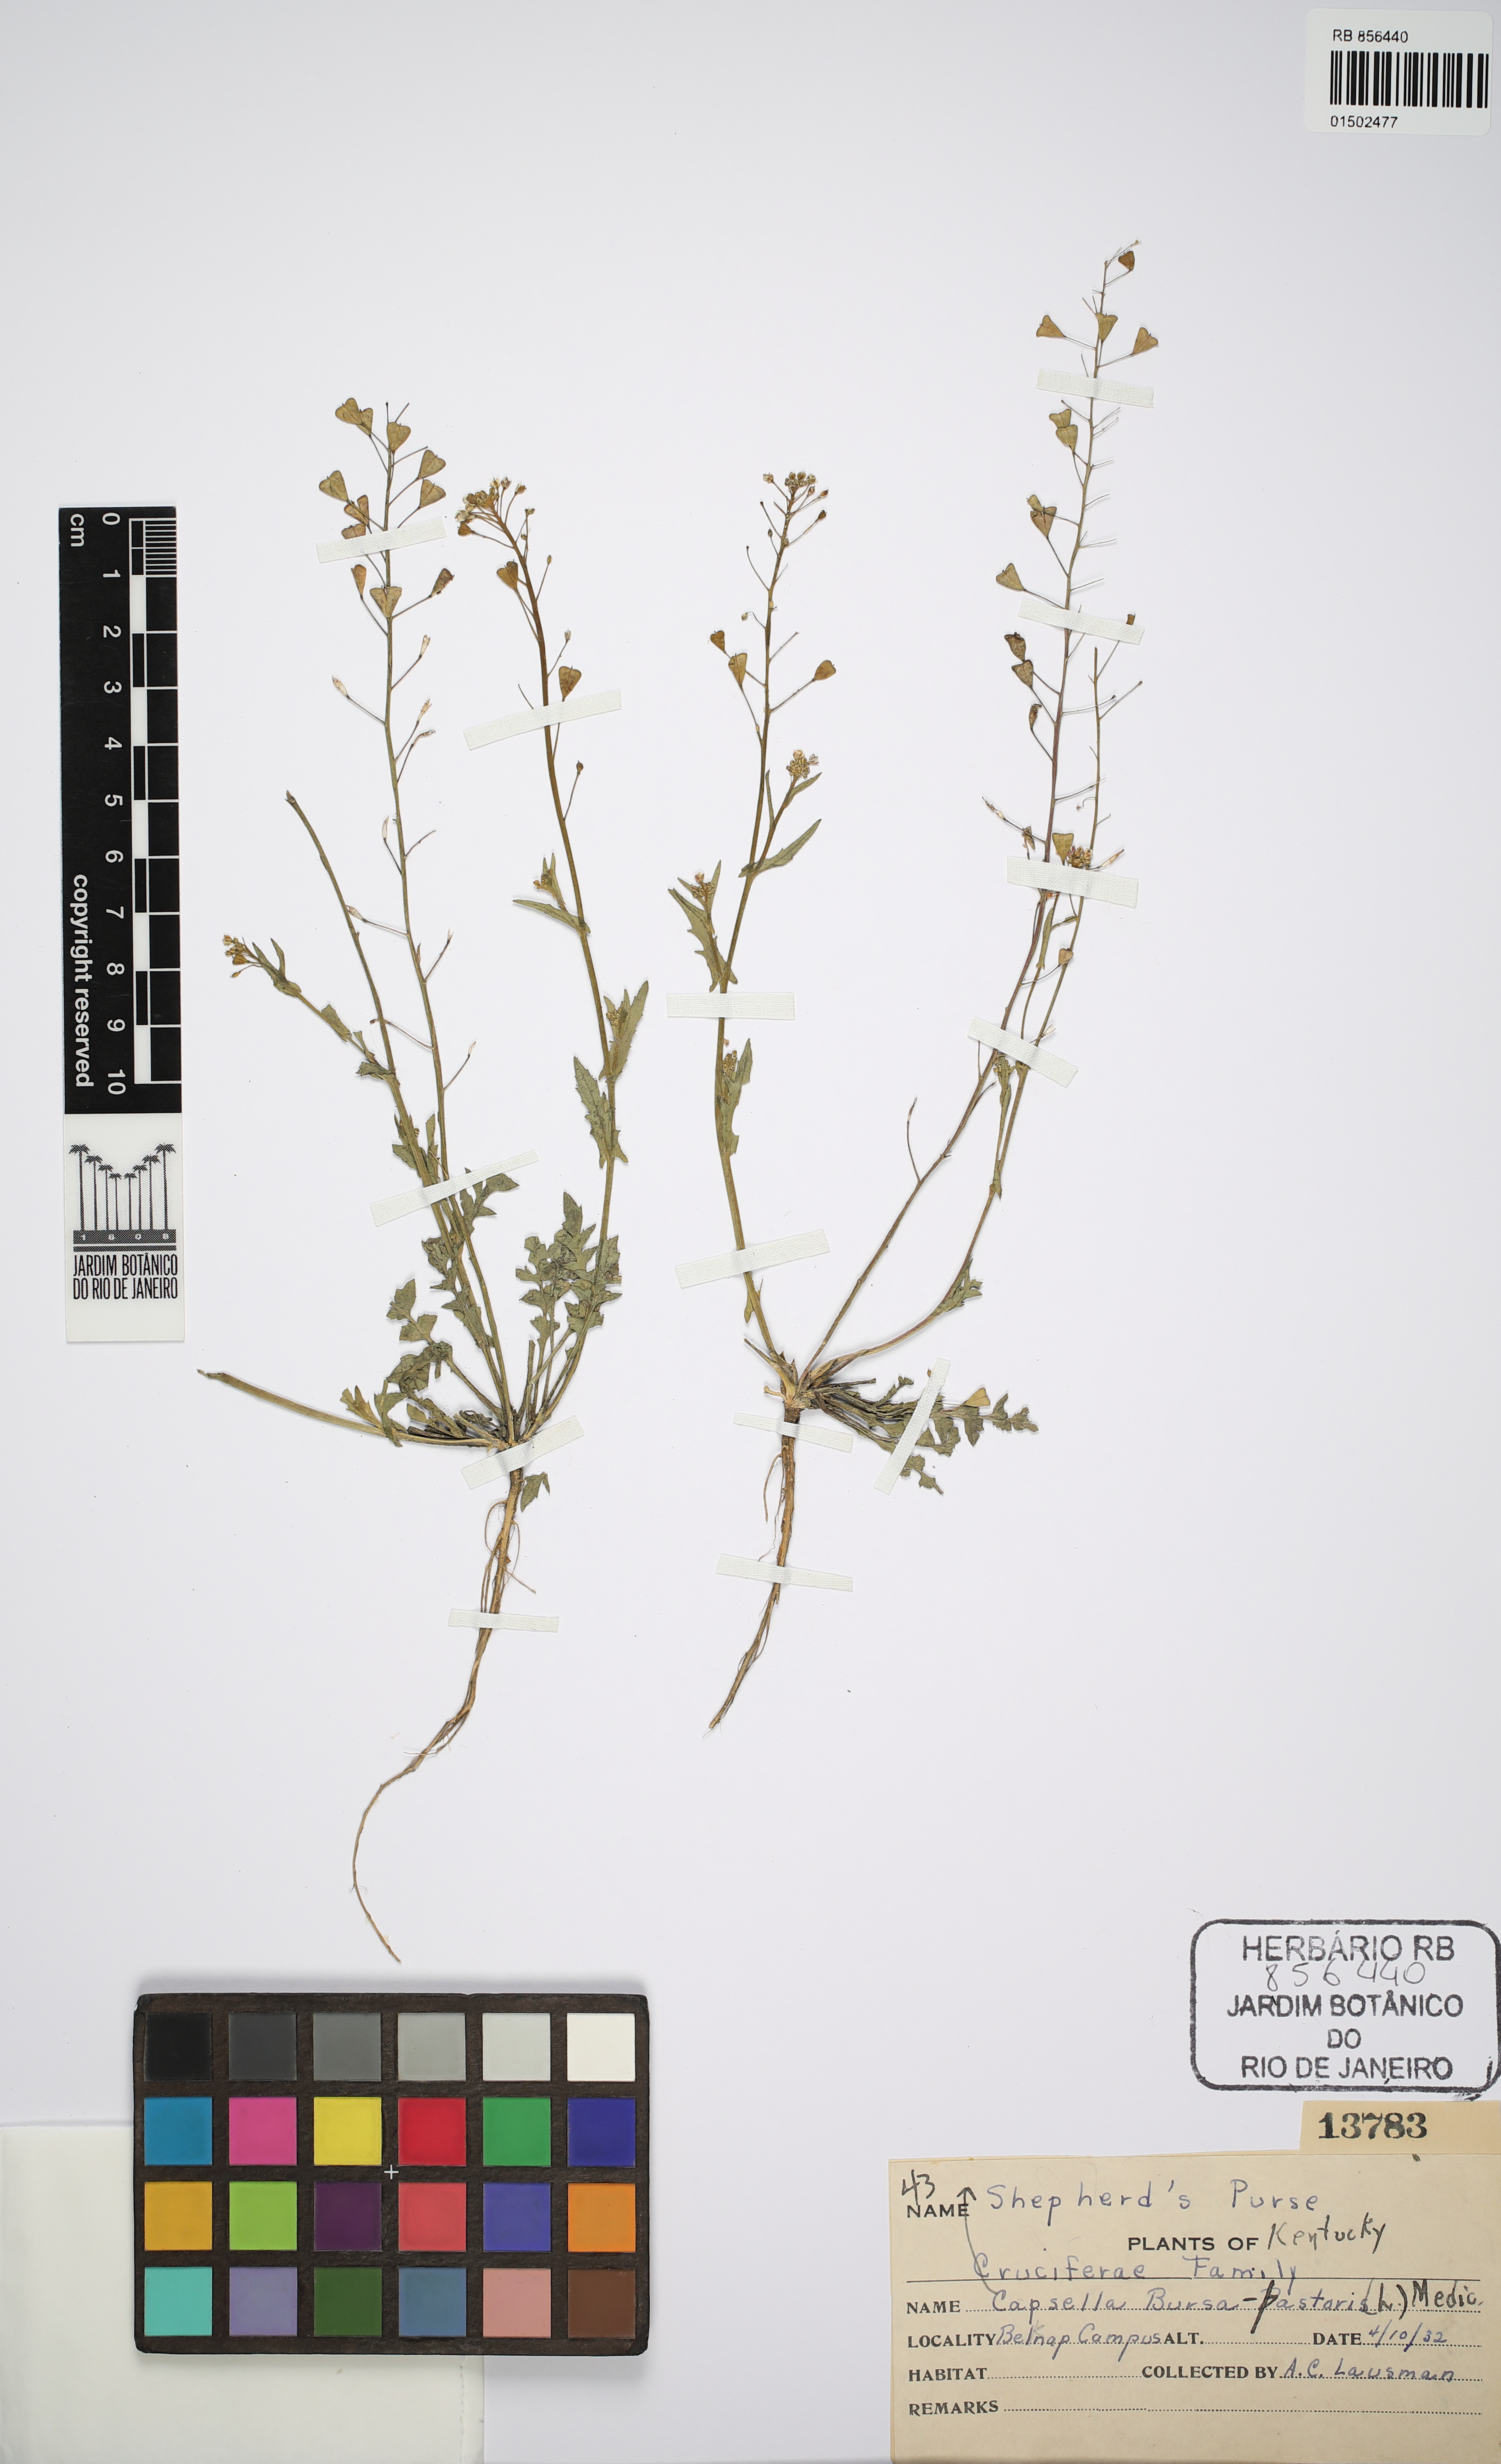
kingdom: Plantae
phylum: Tracheophyta
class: Magnoliopsida
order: Brassicales
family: Brassicaceae
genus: Capsella
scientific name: Capsella bursa-pastoris
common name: Shepherd's purse
